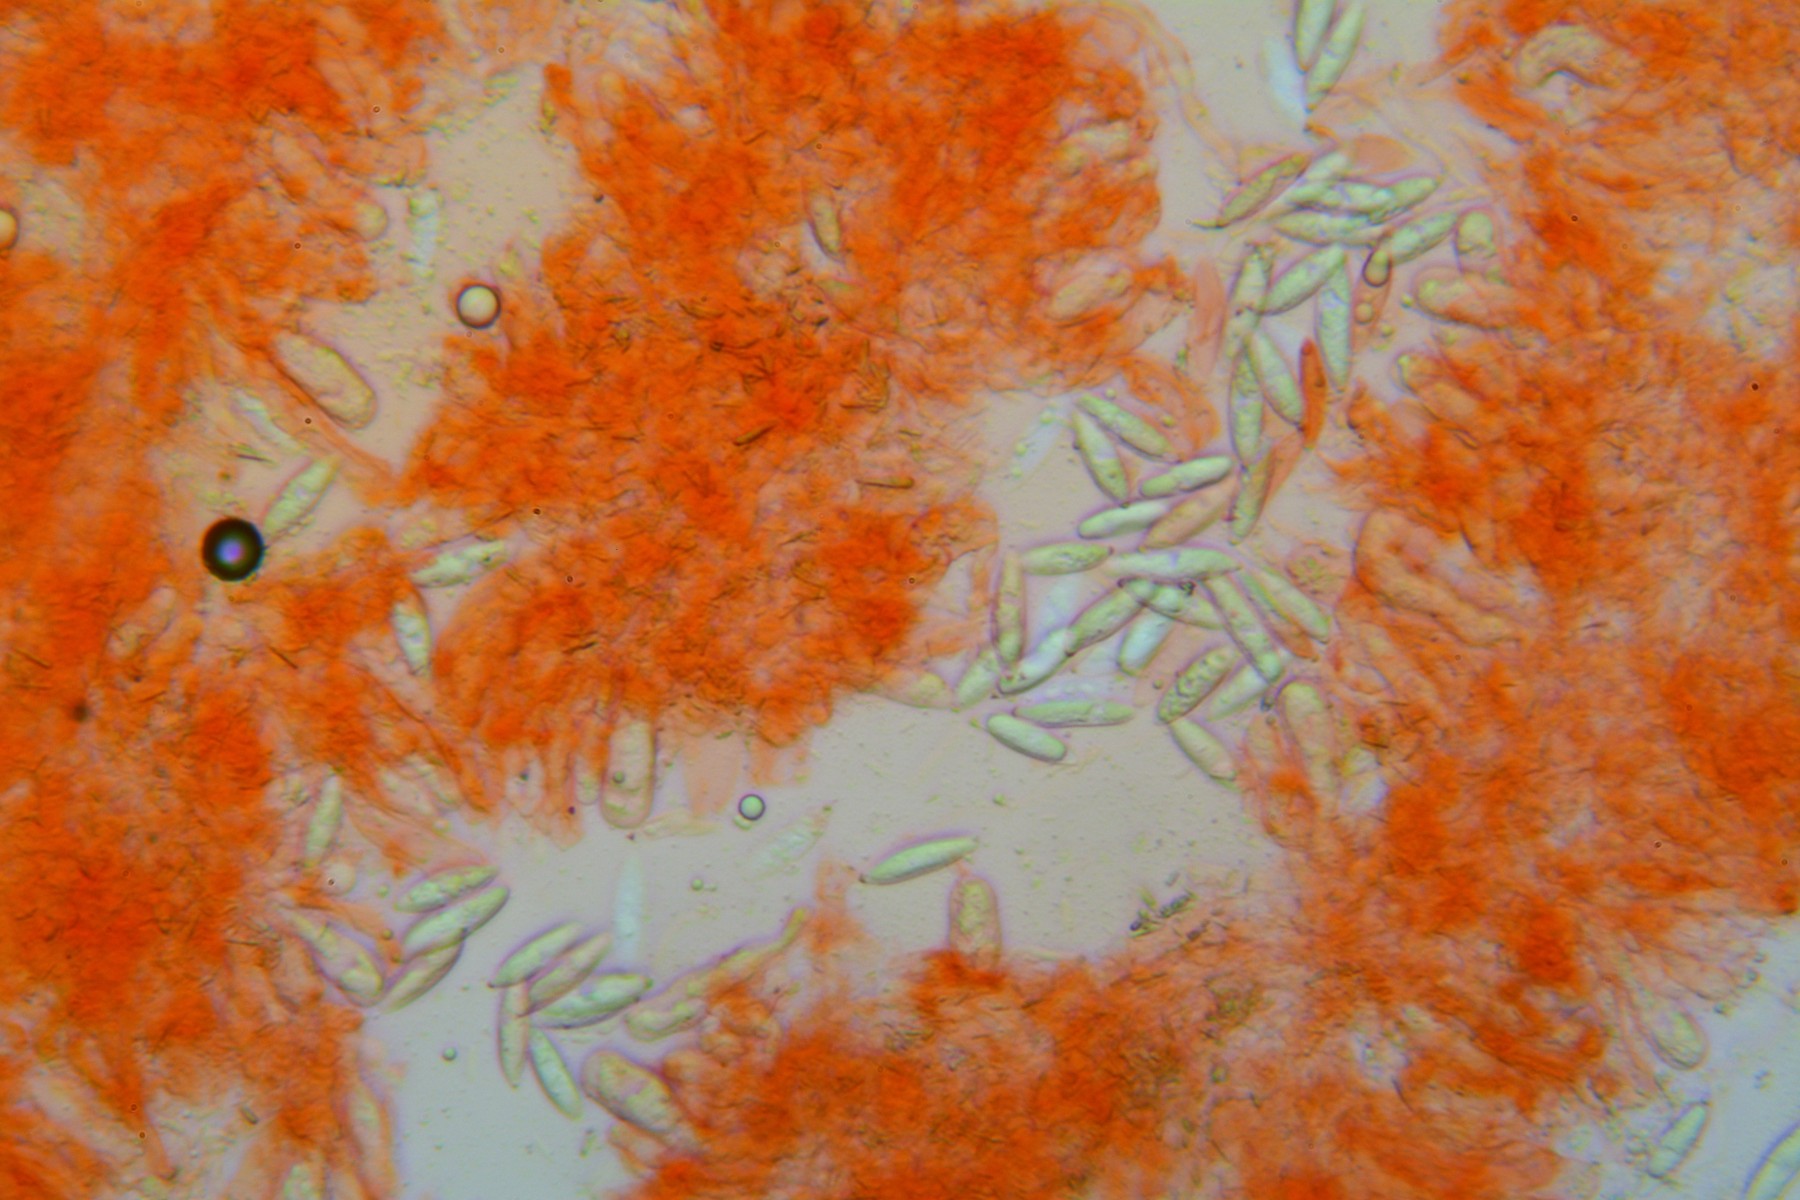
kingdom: Fungi
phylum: Basidiomycota
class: Agaricomycetes
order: Polyporales
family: Polyporaceae
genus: Epithele
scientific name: Epithele typhae
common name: starpig
